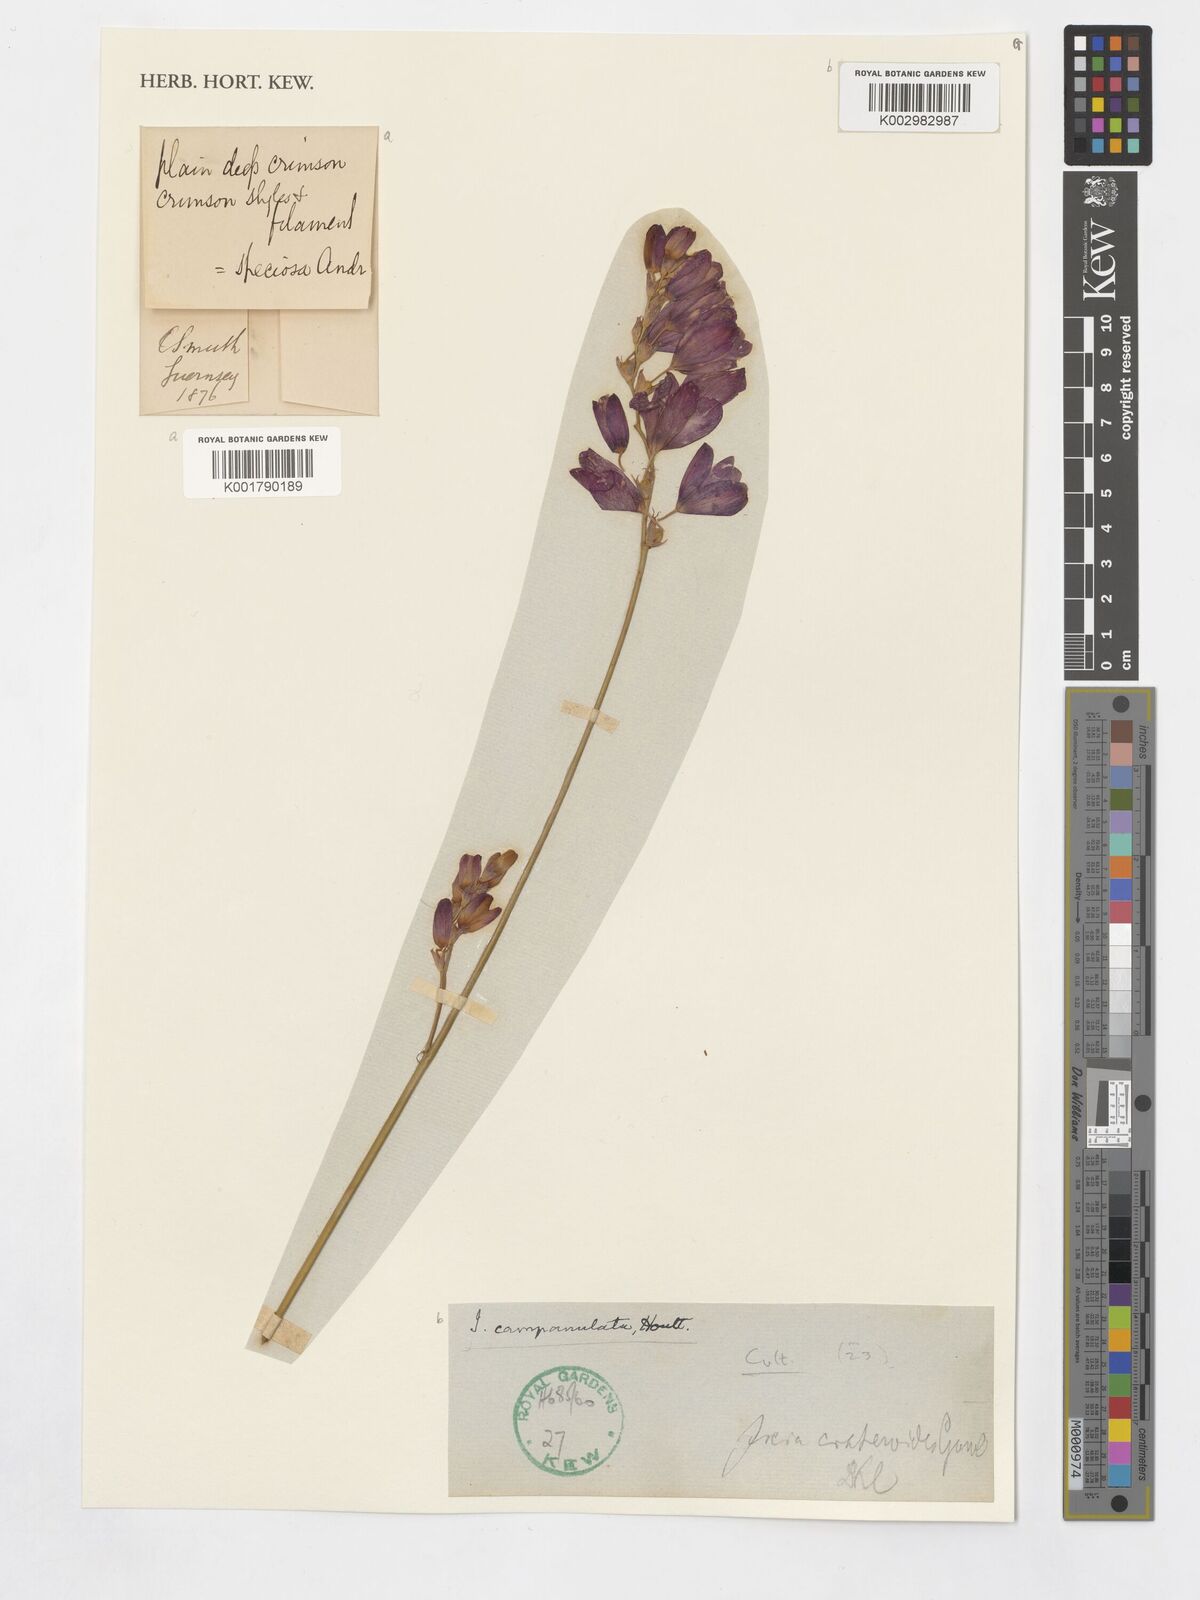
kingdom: Plantae
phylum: Tracheophyta
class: Liliopsida
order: Asparagales
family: Iridaceae
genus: Ixia
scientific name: Ixia campanulata
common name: Red corn-lily
